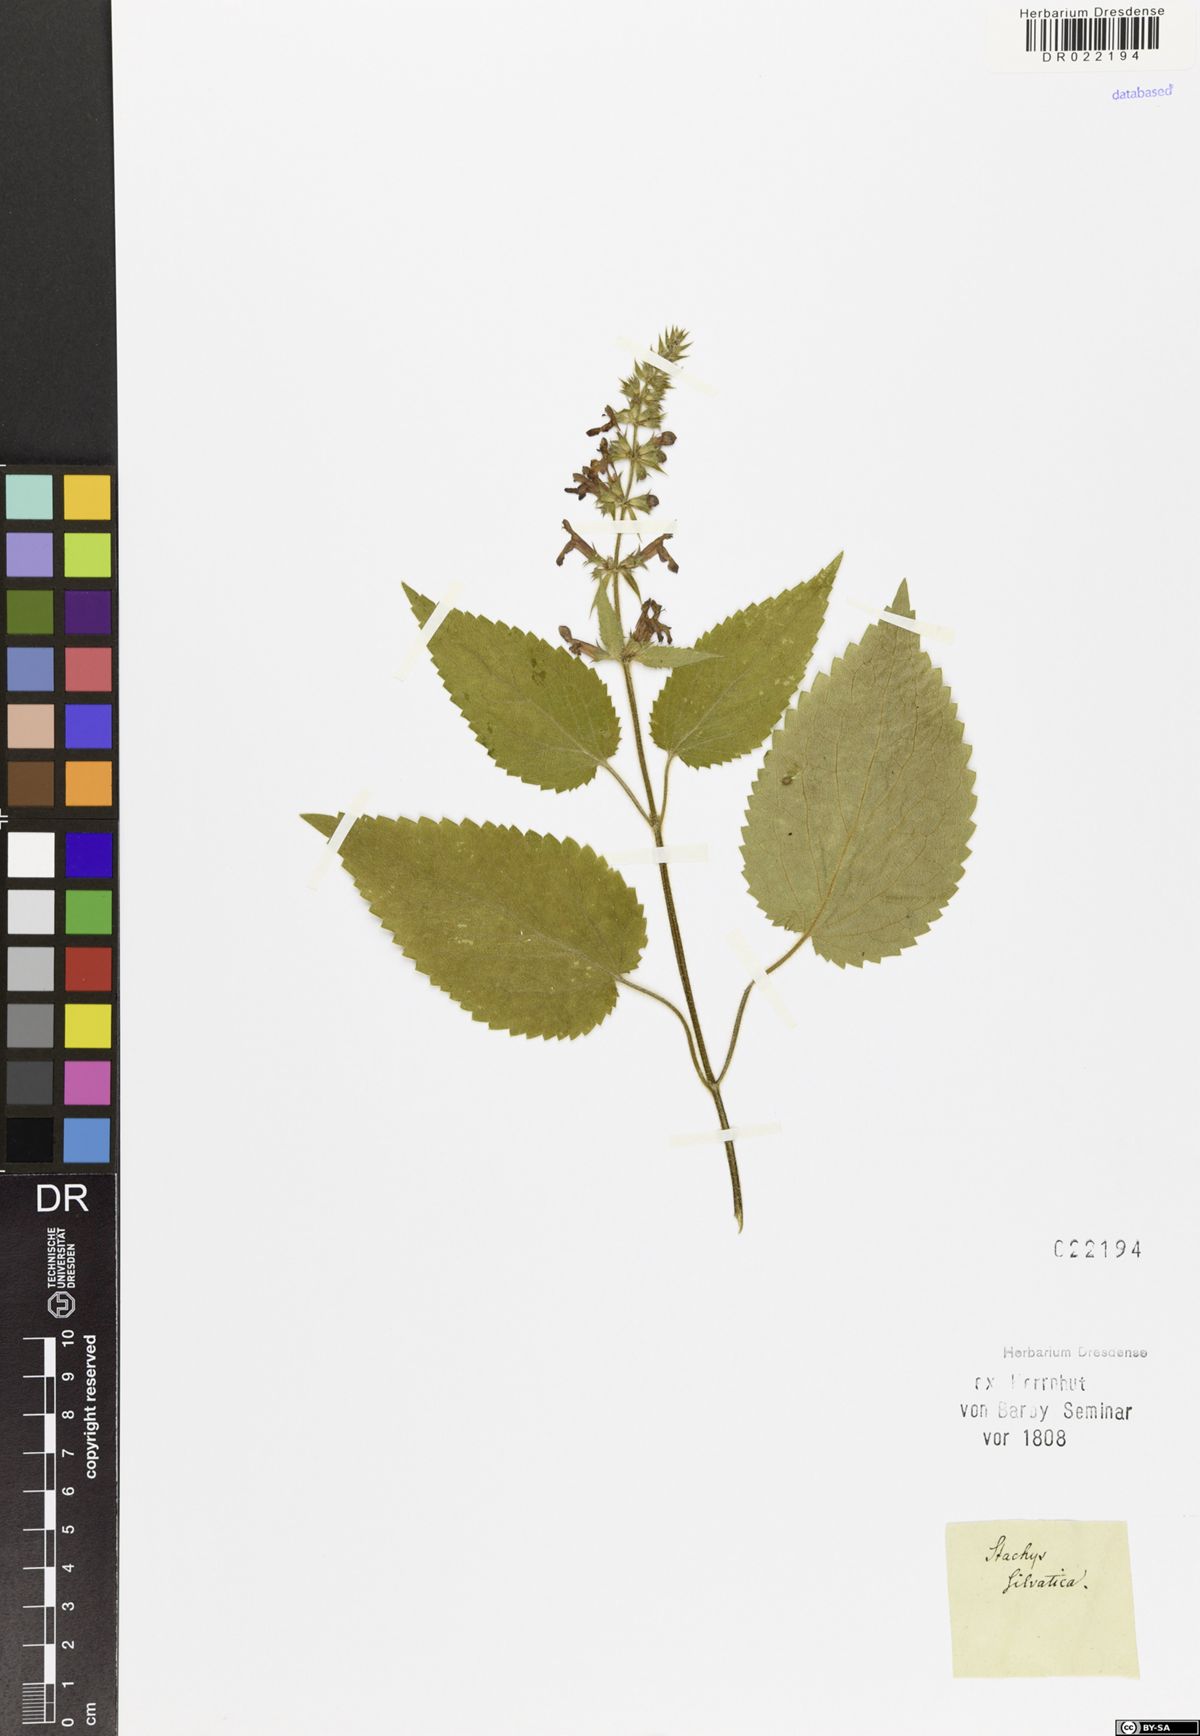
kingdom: Plantae
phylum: Tracheophyta
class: Magnoliopsida
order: Lamiales
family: Lamiaceae
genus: Stachys
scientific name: Stachys sylvatica
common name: Hedge woundwort
